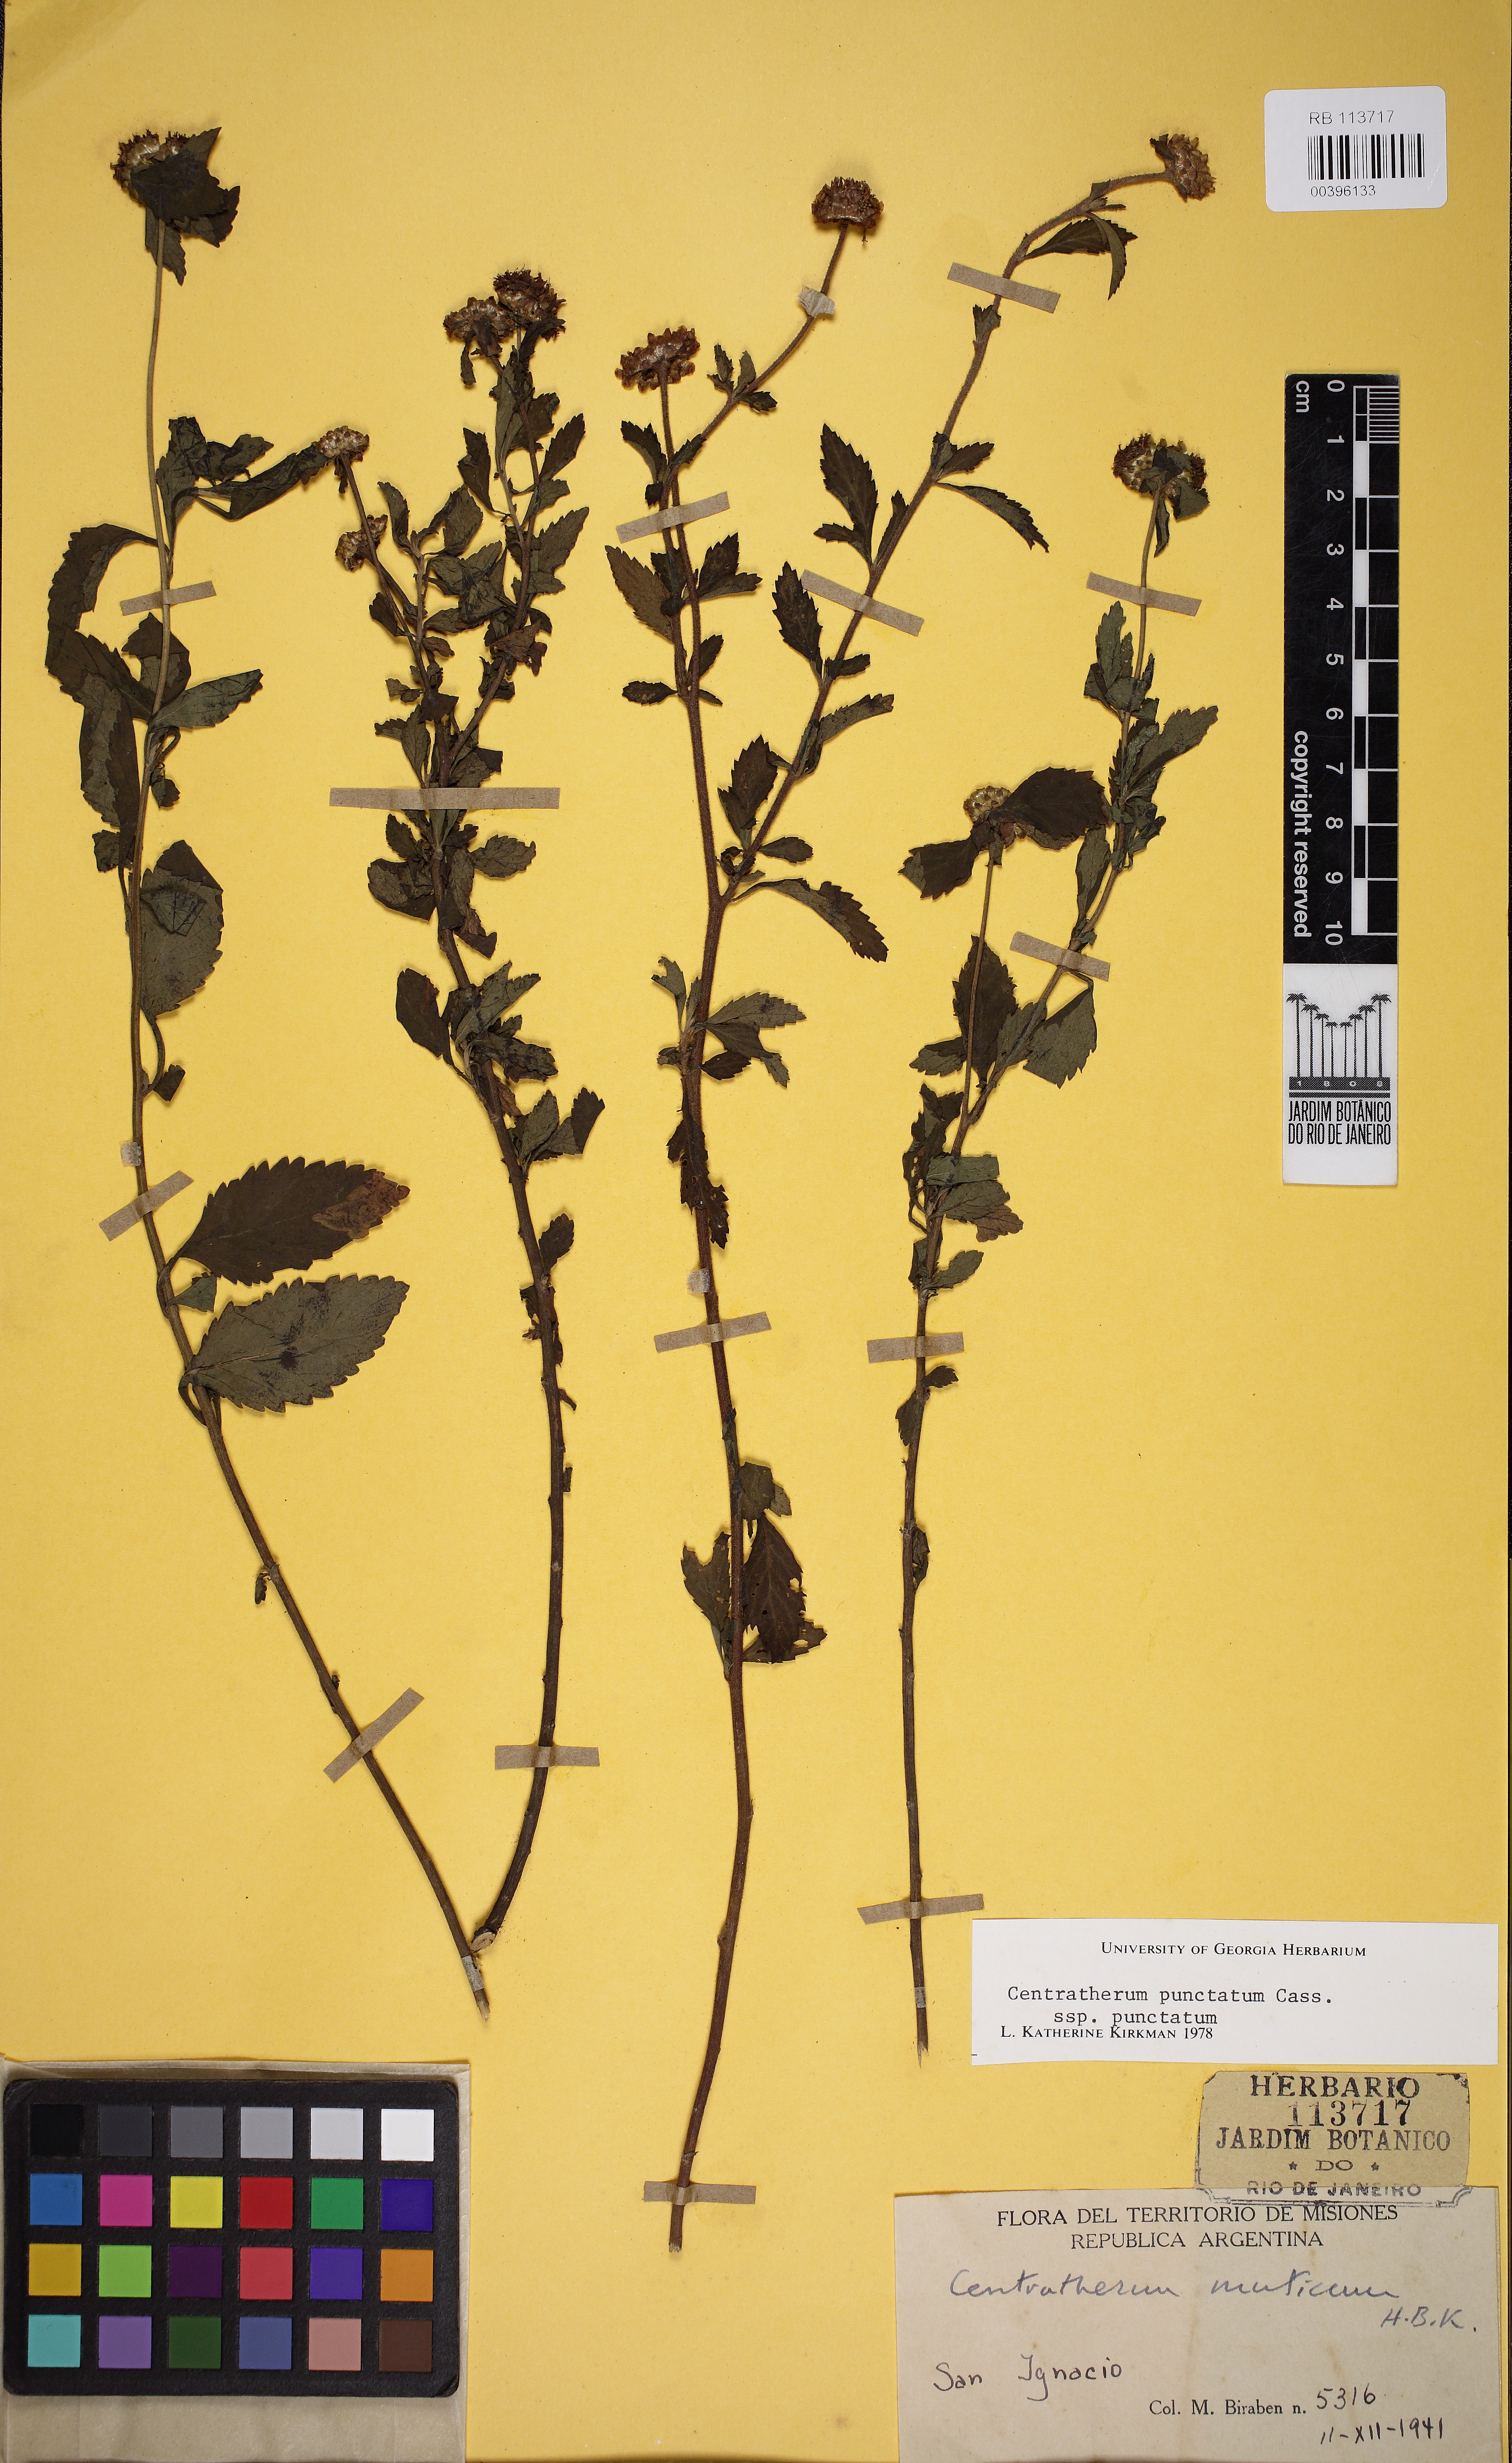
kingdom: Plantae
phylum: Tracheophyta
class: Magnoliopsida
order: Asterales
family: Asteraceae
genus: Centratherum
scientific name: Centratherum punctatum
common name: Larkdaisy
